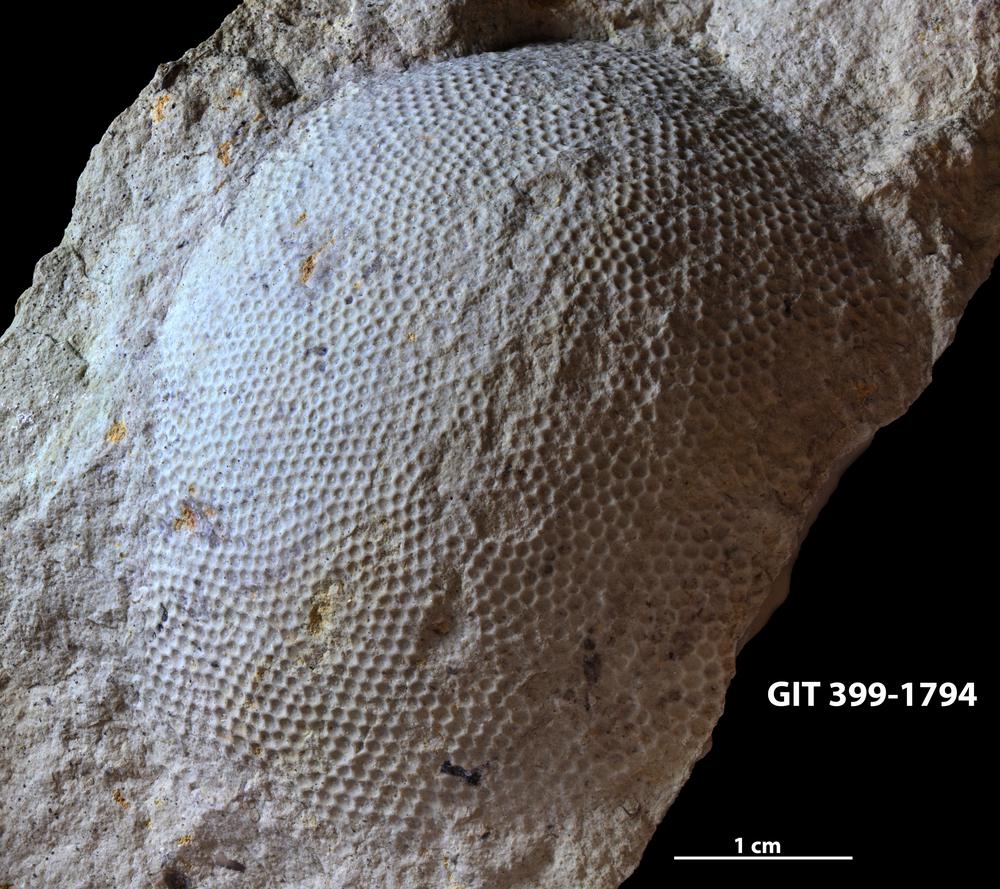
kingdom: Plantae
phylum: Chlorophyta
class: Ulvophyceae
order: Cyclocrinales
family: Cyclocrinaceae
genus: Mastopora
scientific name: Mastopora concava
